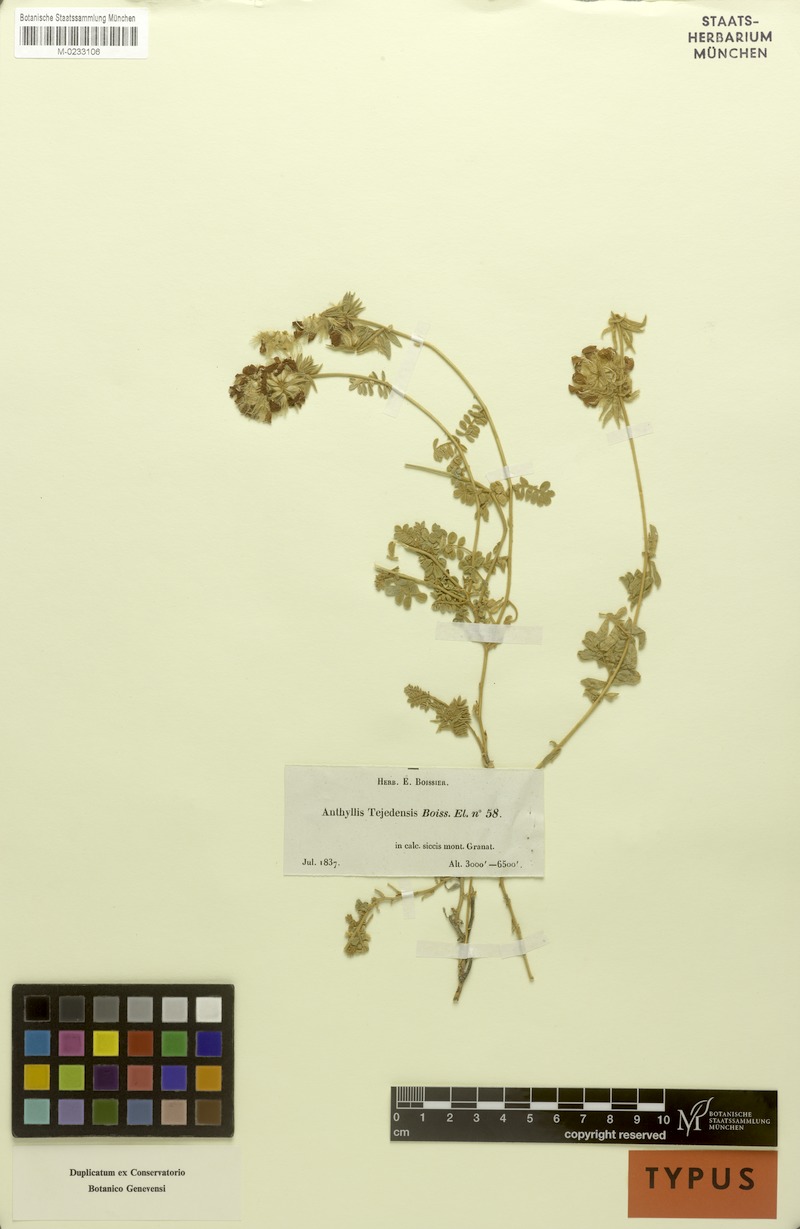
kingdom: Plantae
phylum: Tracheophyta
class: Magnoliopsida
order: Fabales
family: Fabaceae
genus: Anthyllis
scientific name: Anthyllis tejedensis
